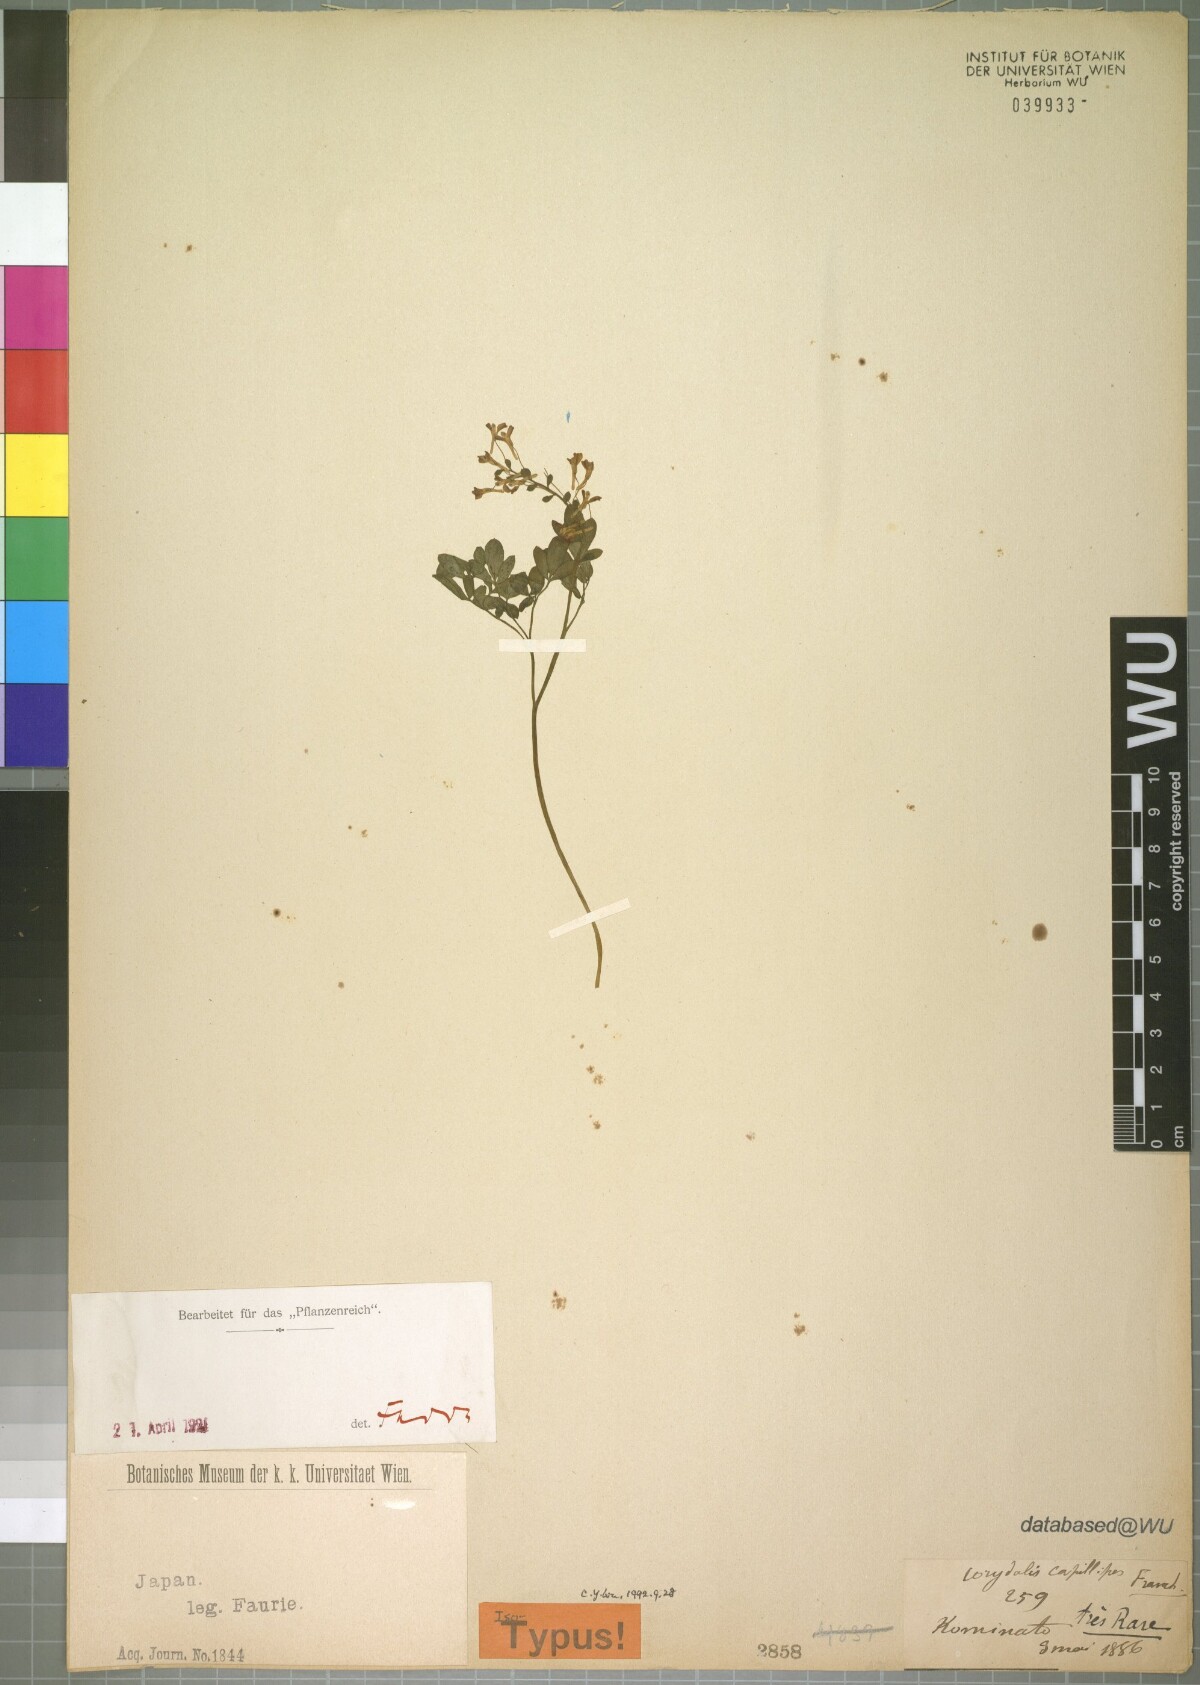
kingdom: Plantae
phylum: Tracheophyta
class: Magnoliopsida
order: Ranunculales
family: Papaveraceae
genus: Corydalis
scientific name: Corydalis orthoceras
